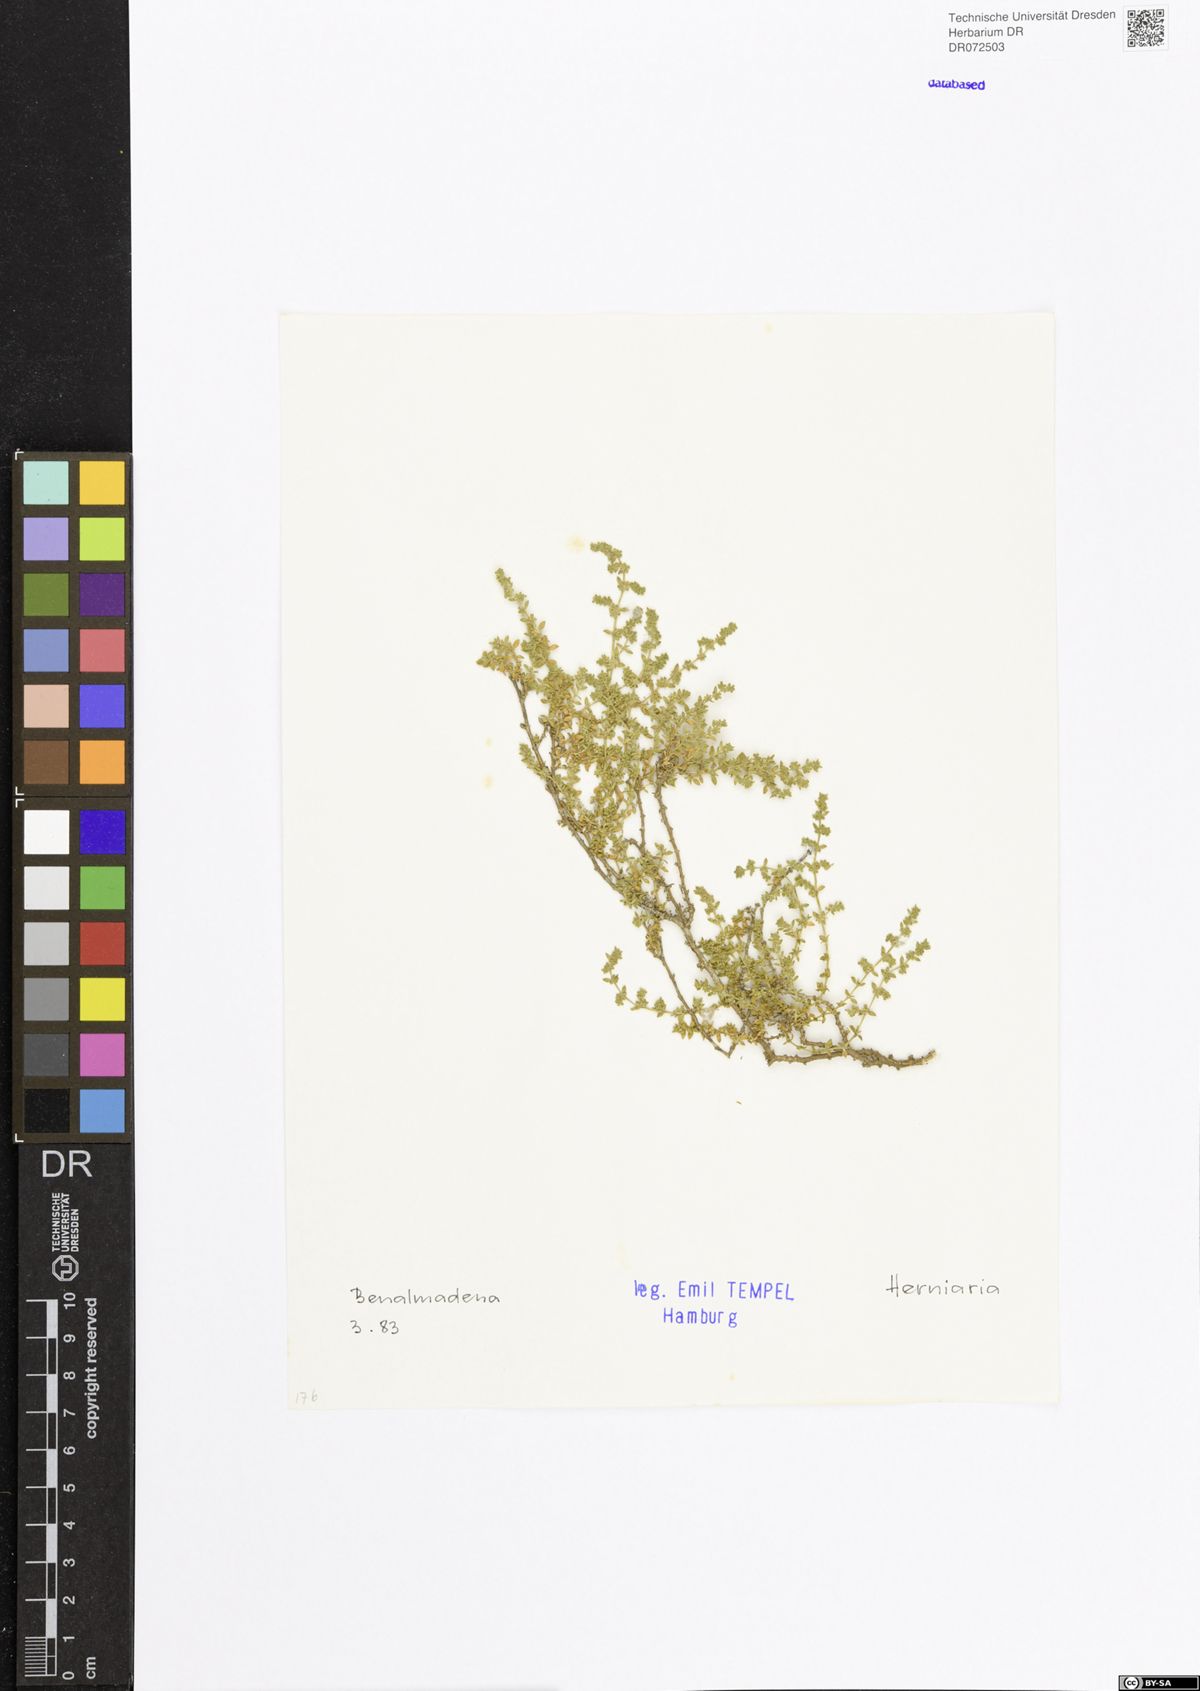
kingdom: Plantae
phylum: Tracheophyta
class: Magnoliopsida
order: Caryophyllales
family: Caryophyllaceae
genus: Herniaria
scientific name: Herniaria
